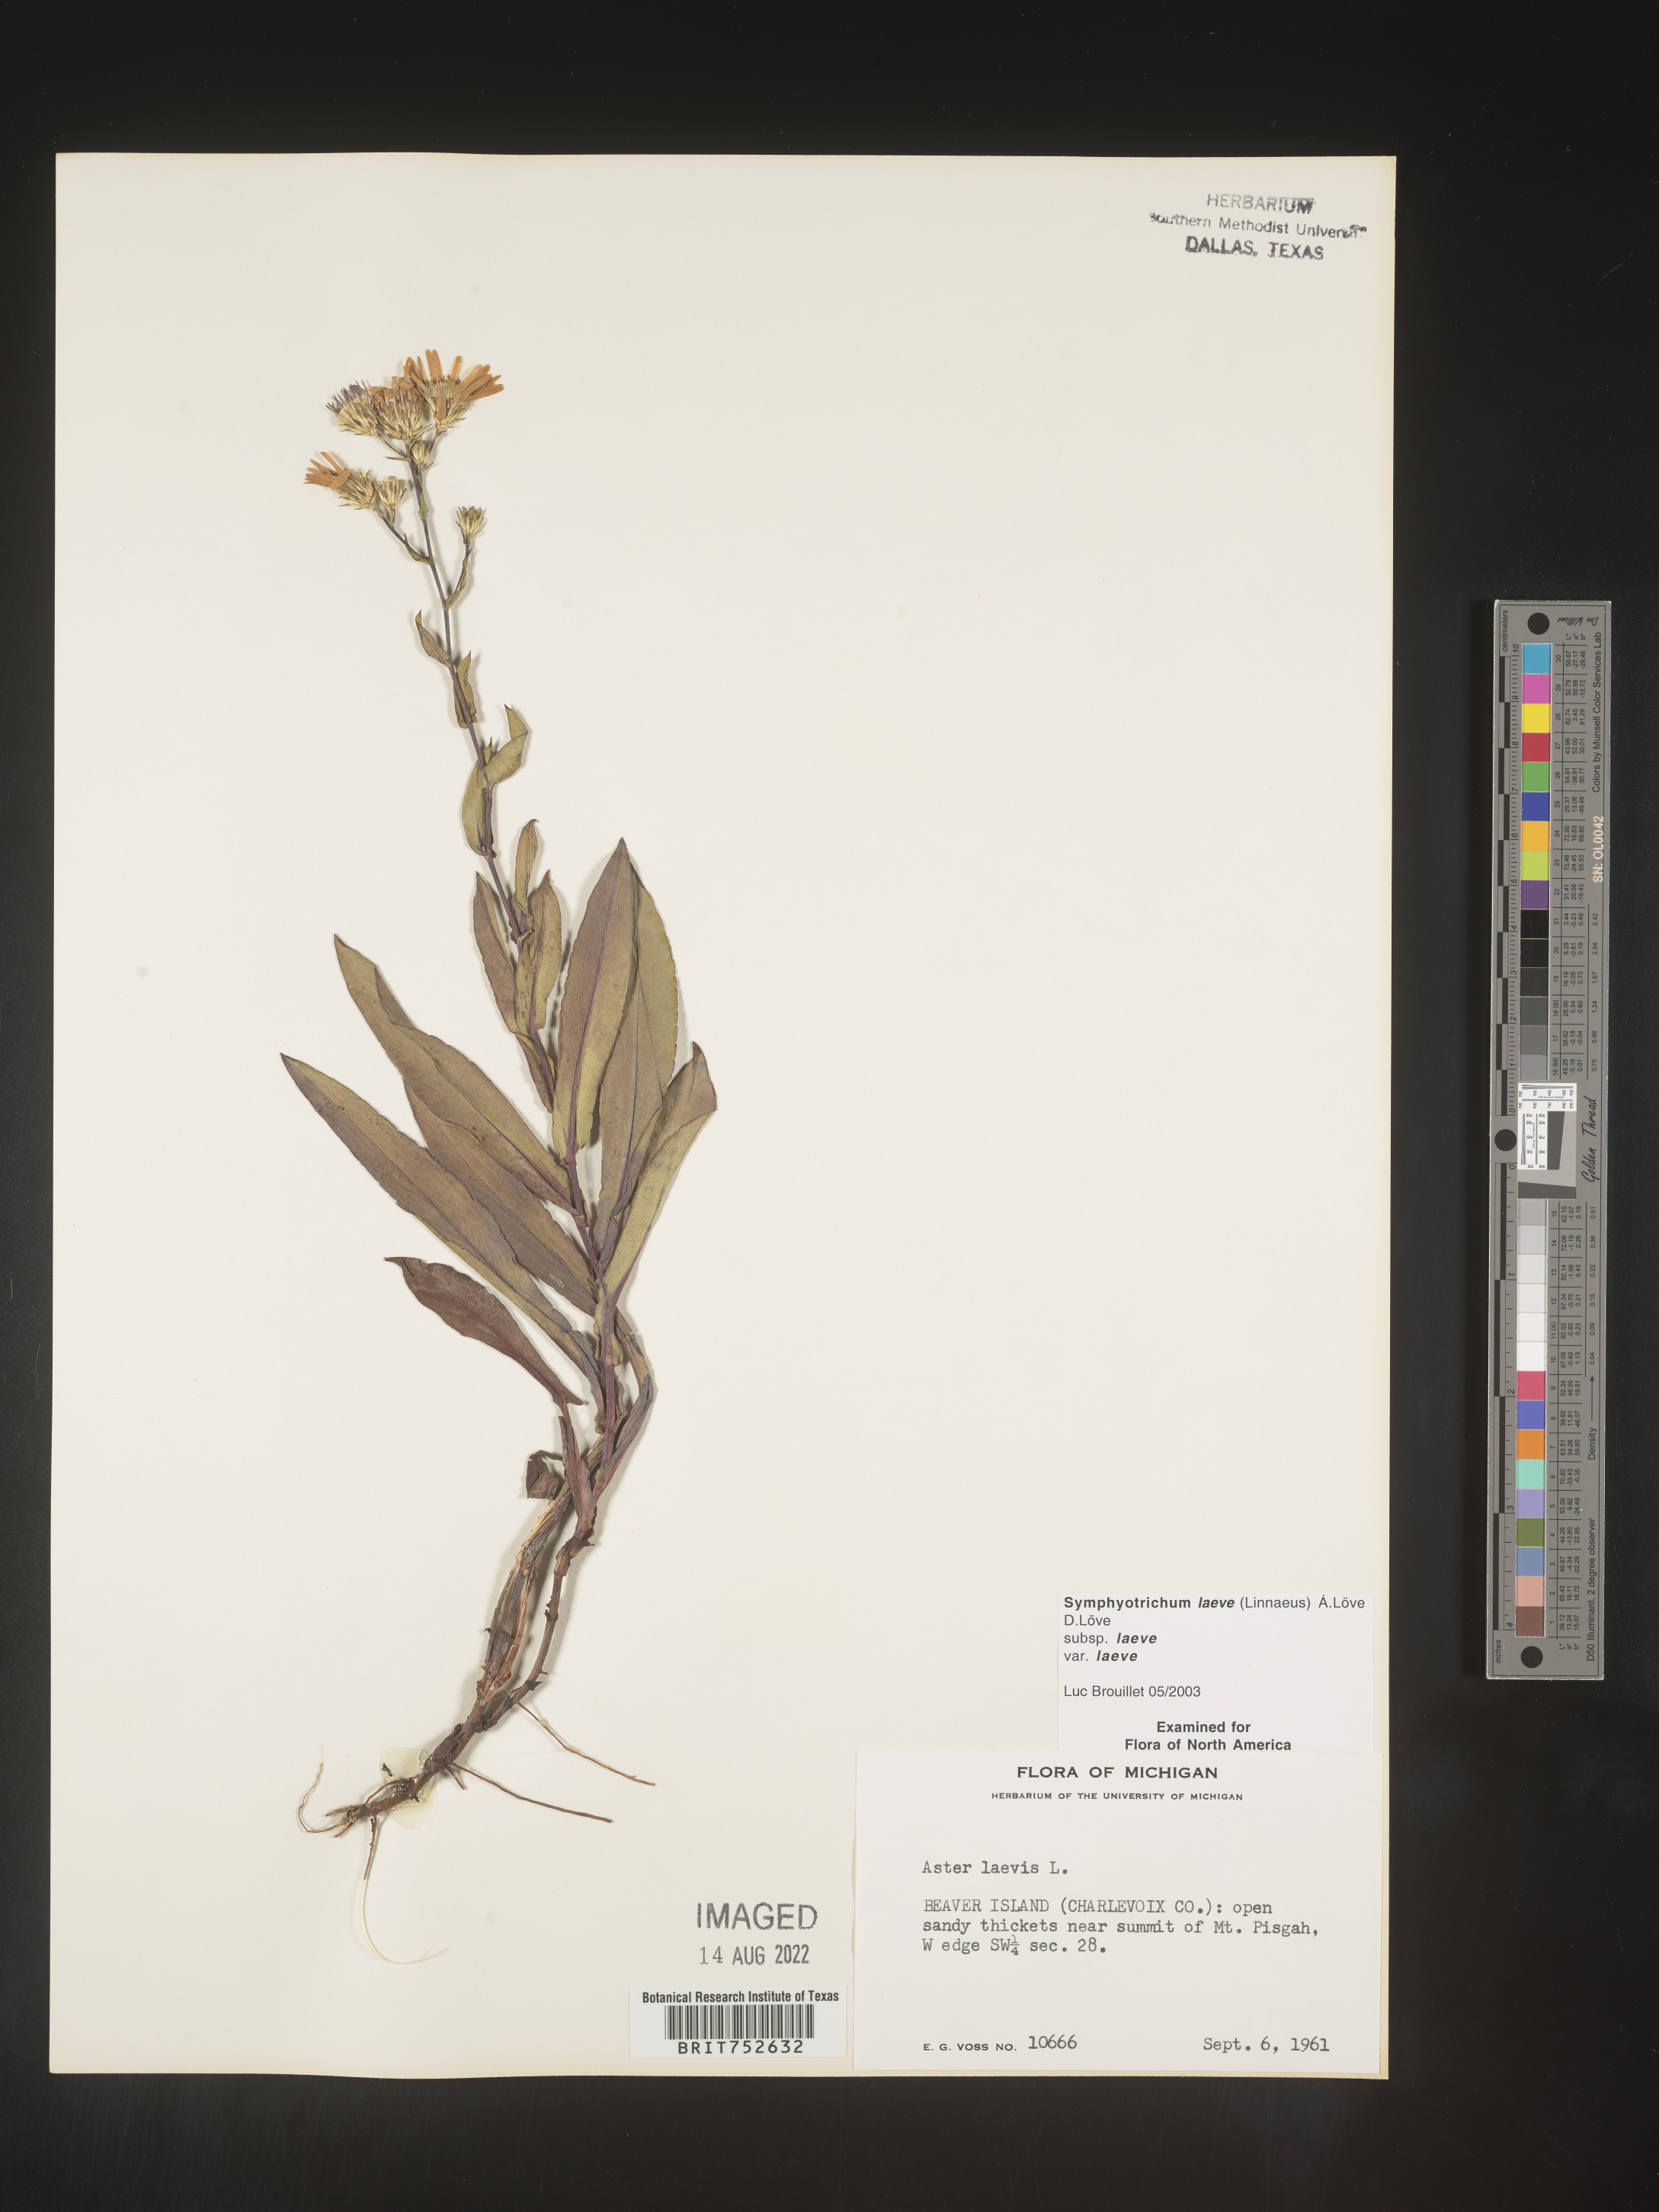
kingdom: Plantae
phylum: Tracheophyta
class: Magnoliopsida
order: Asterales
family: Asteraceae
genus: Symphyotrichum
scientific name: Symphyotrichum laeve
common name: Glaucous aster
